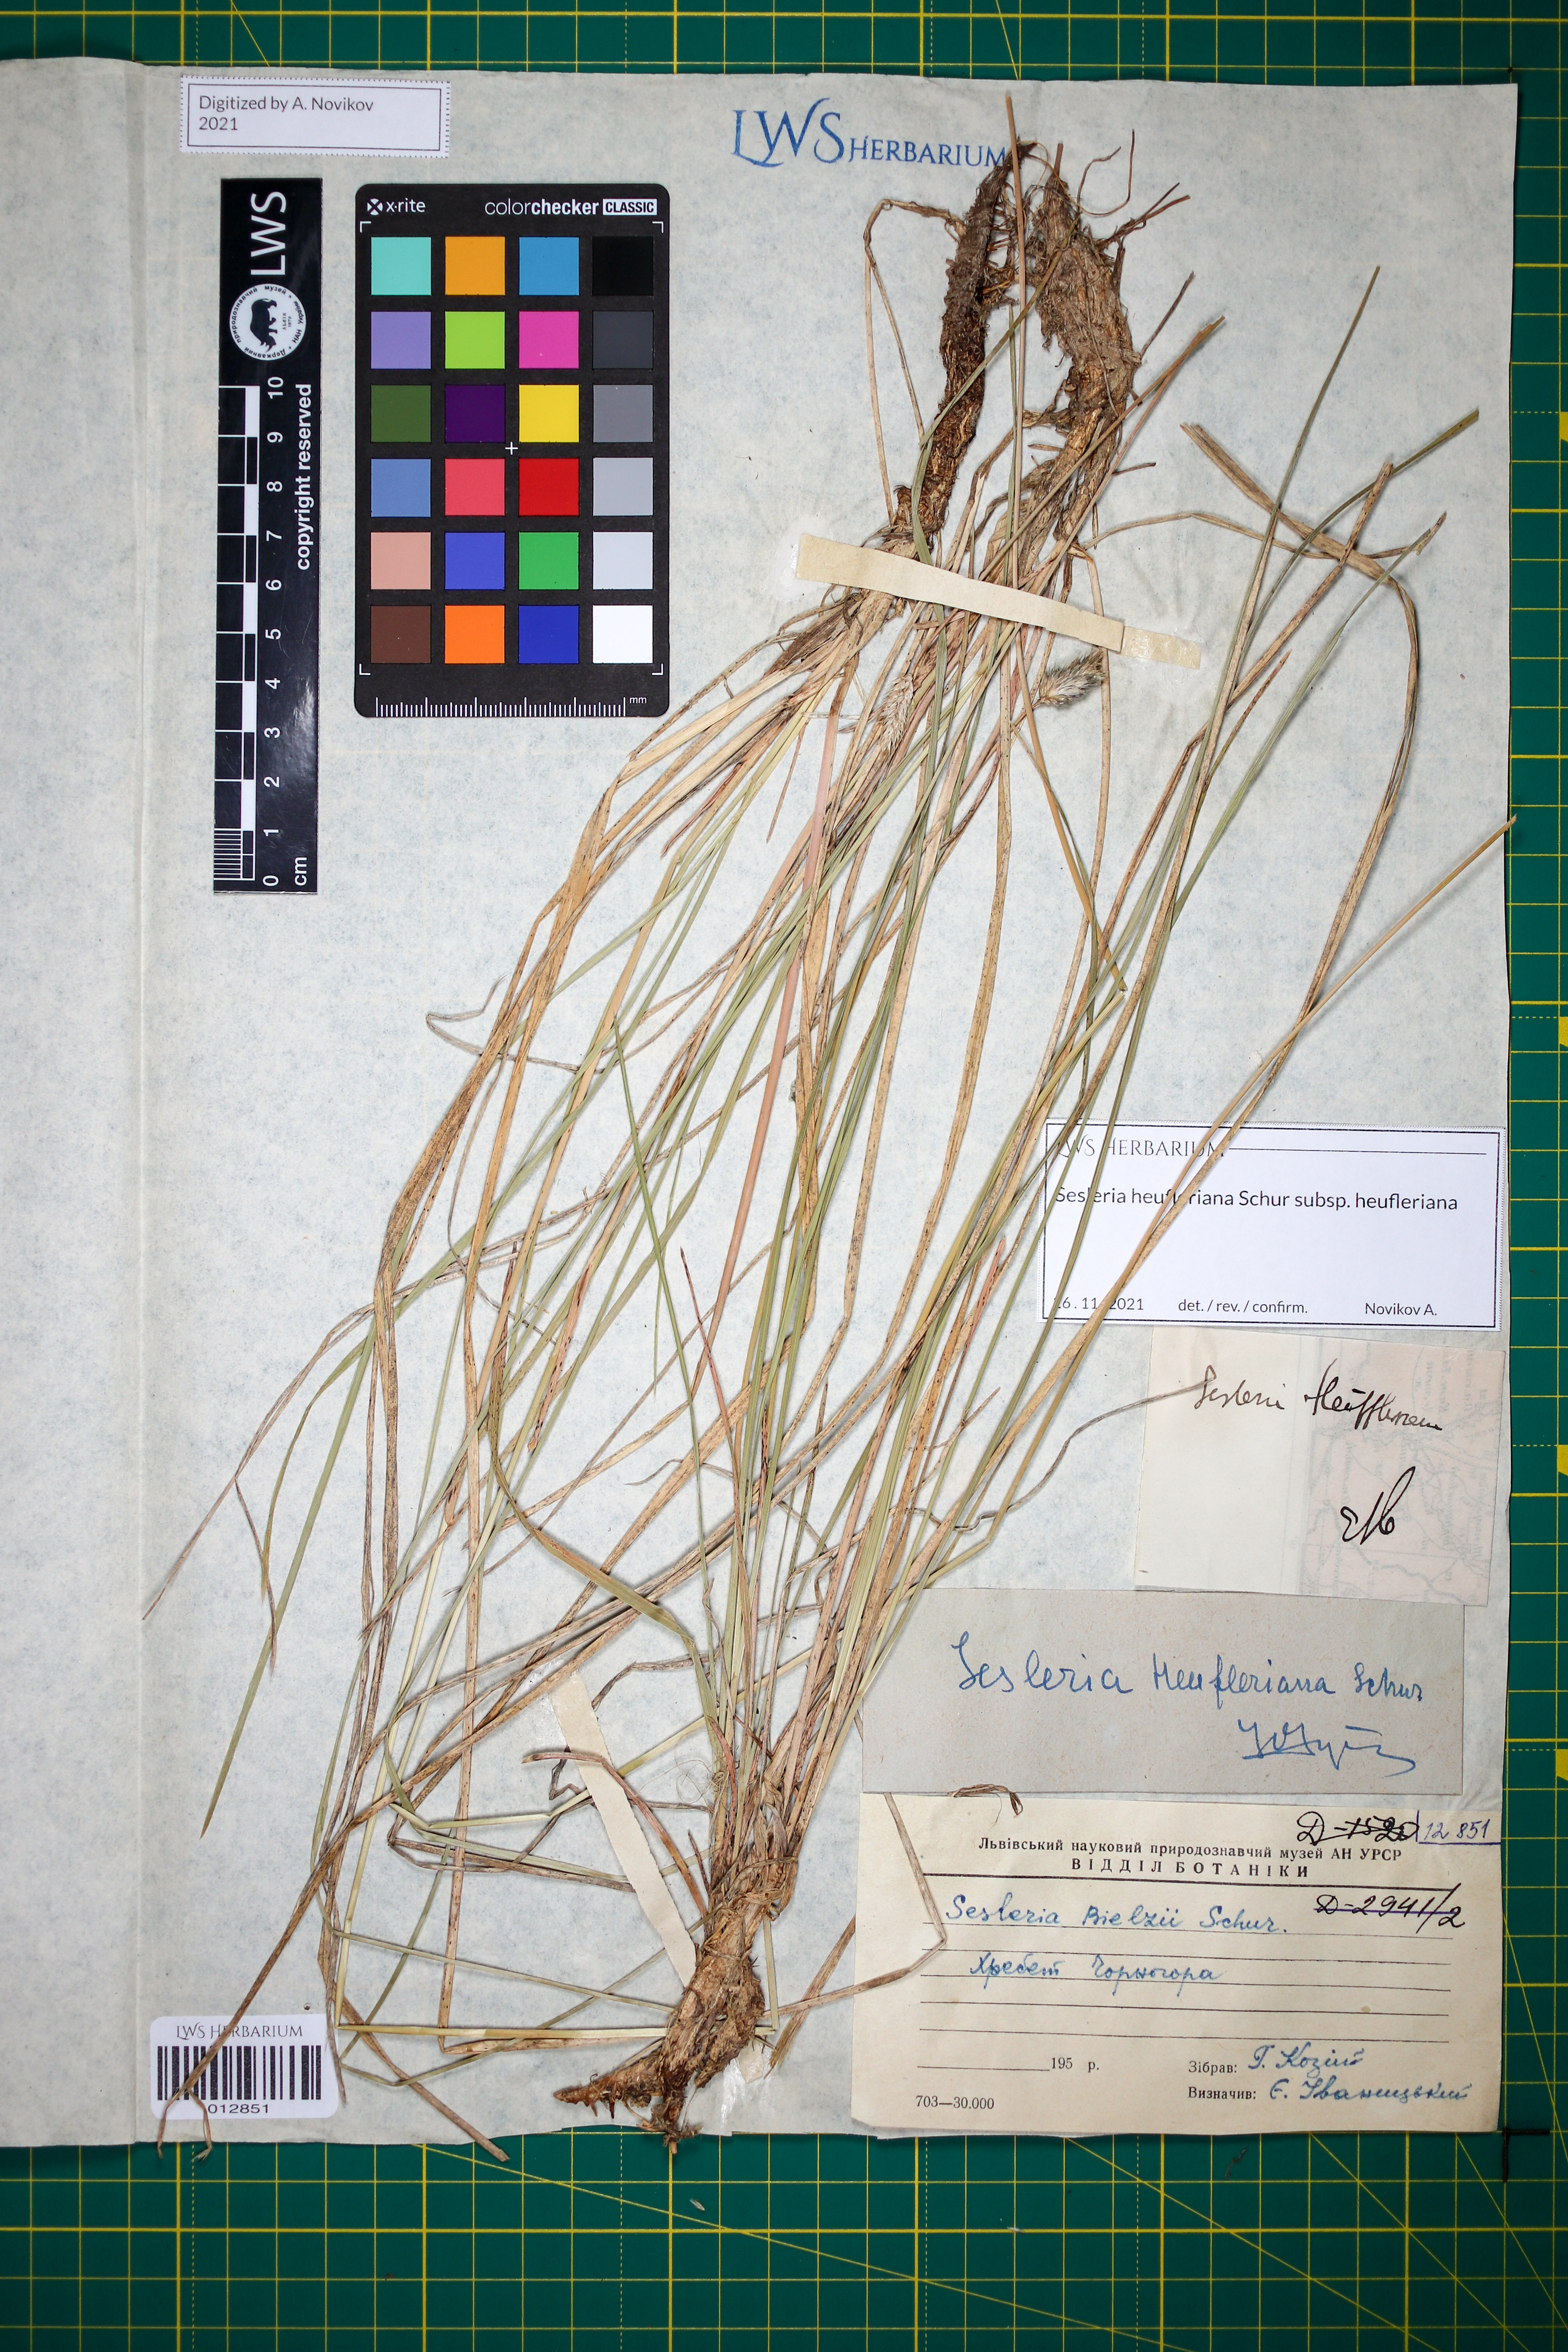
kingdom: Plantae
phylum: Tracheophyta
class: Liliopsida
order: Poales
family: Poaceae
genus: Sesleria
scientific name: Sesleria heufleriana
